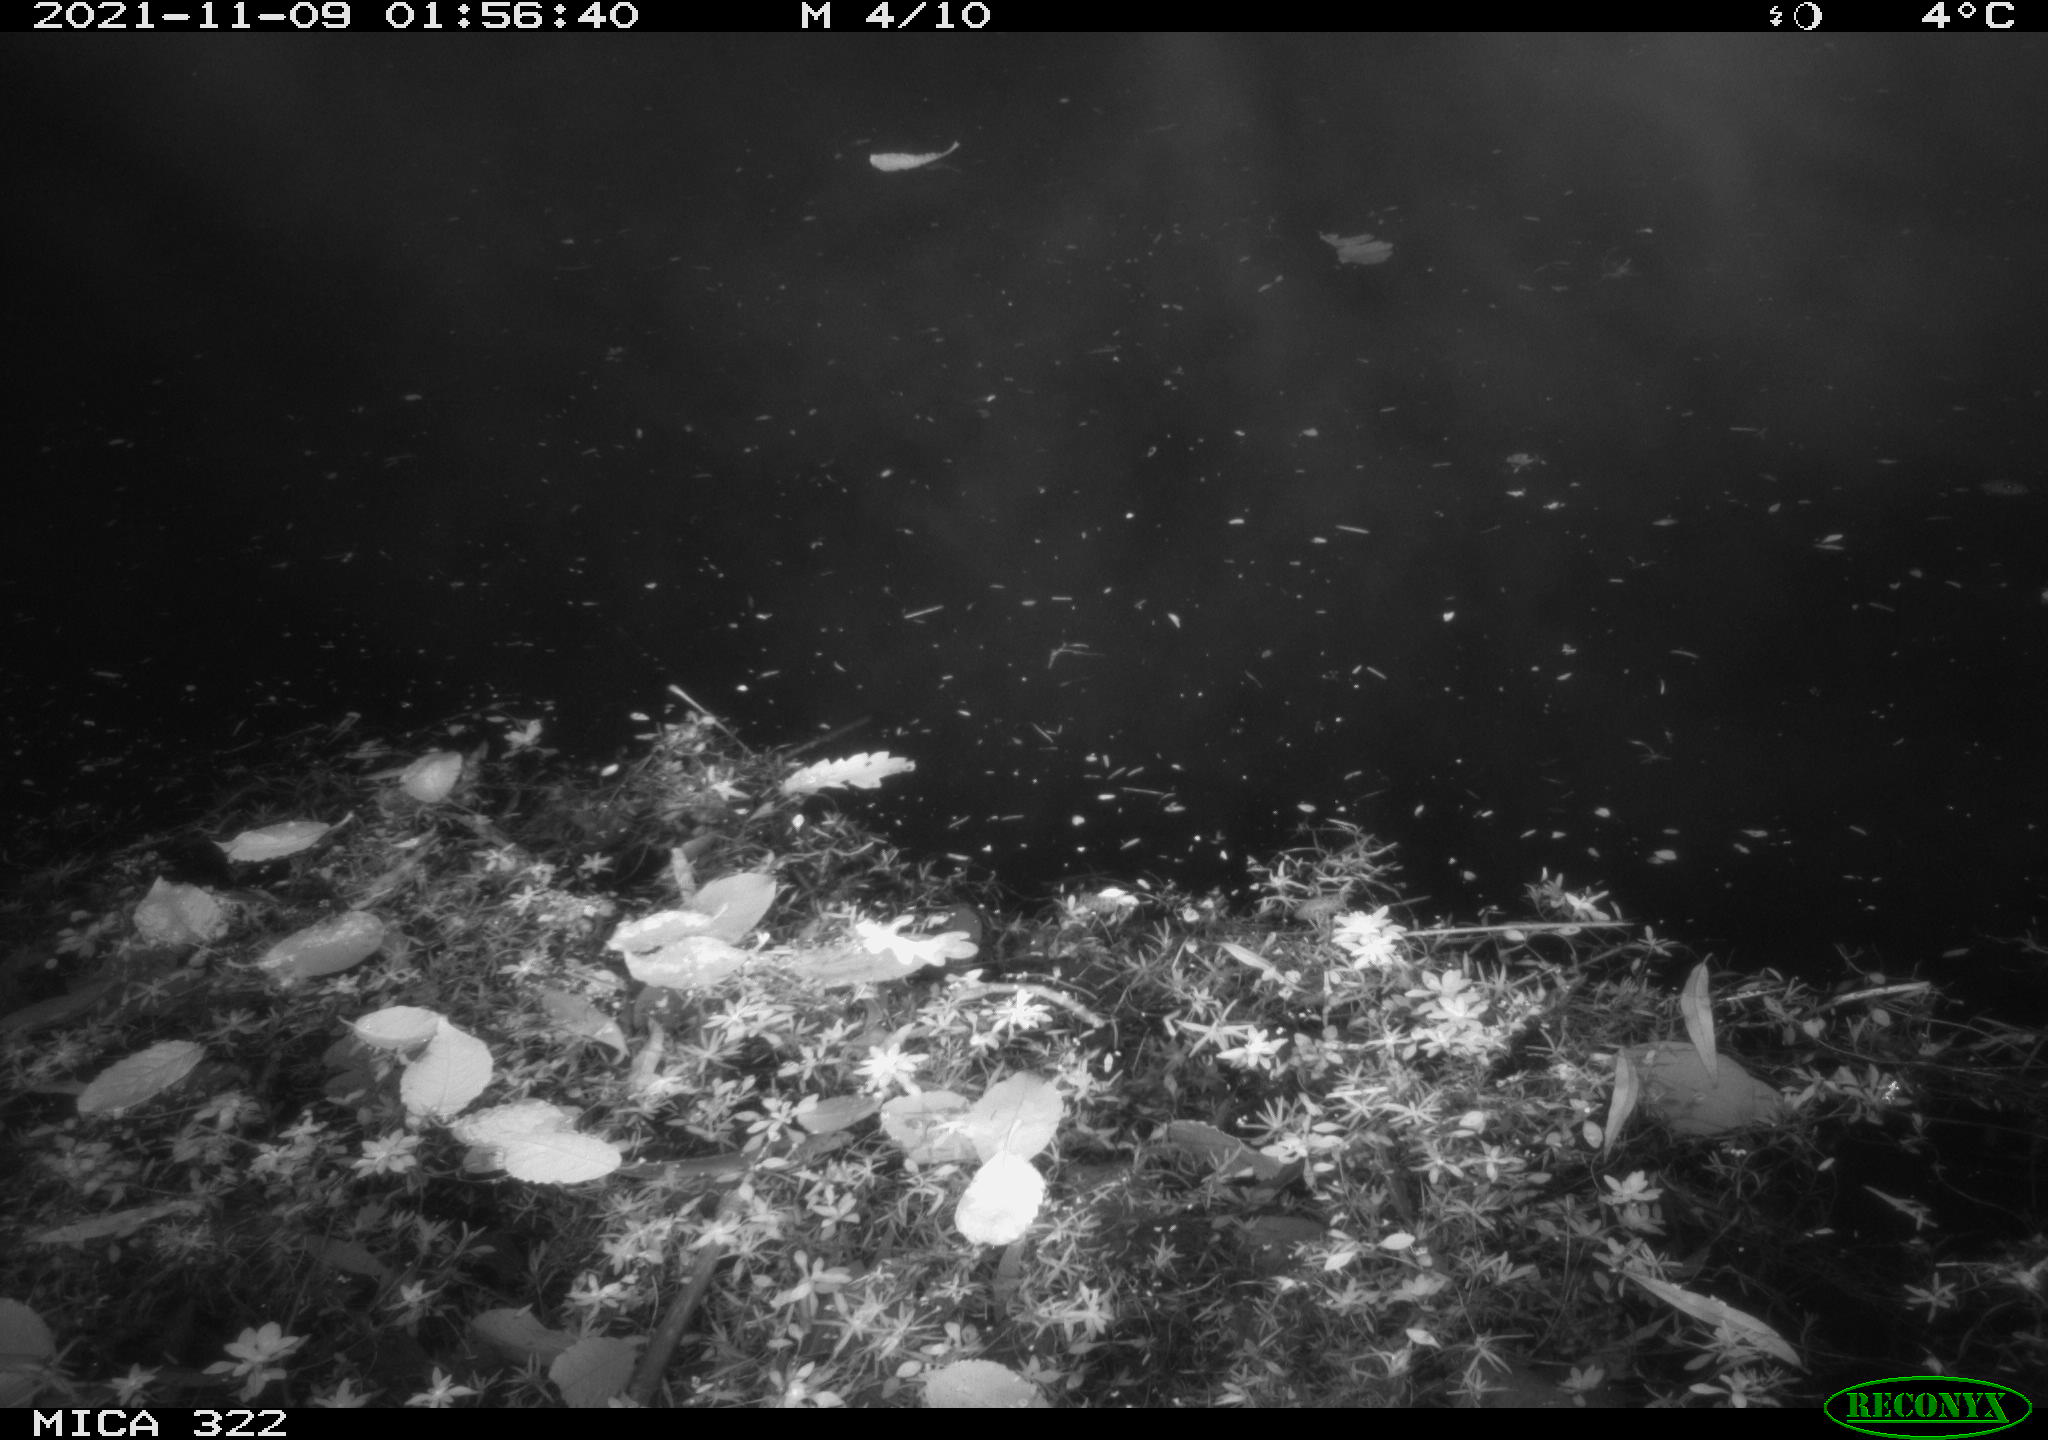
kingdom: Animalia
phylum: Chordata
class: Mammalia
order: Rodentia
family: Muridae
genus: Rattus
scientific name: Rattus norvegicus
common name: Brown rat
